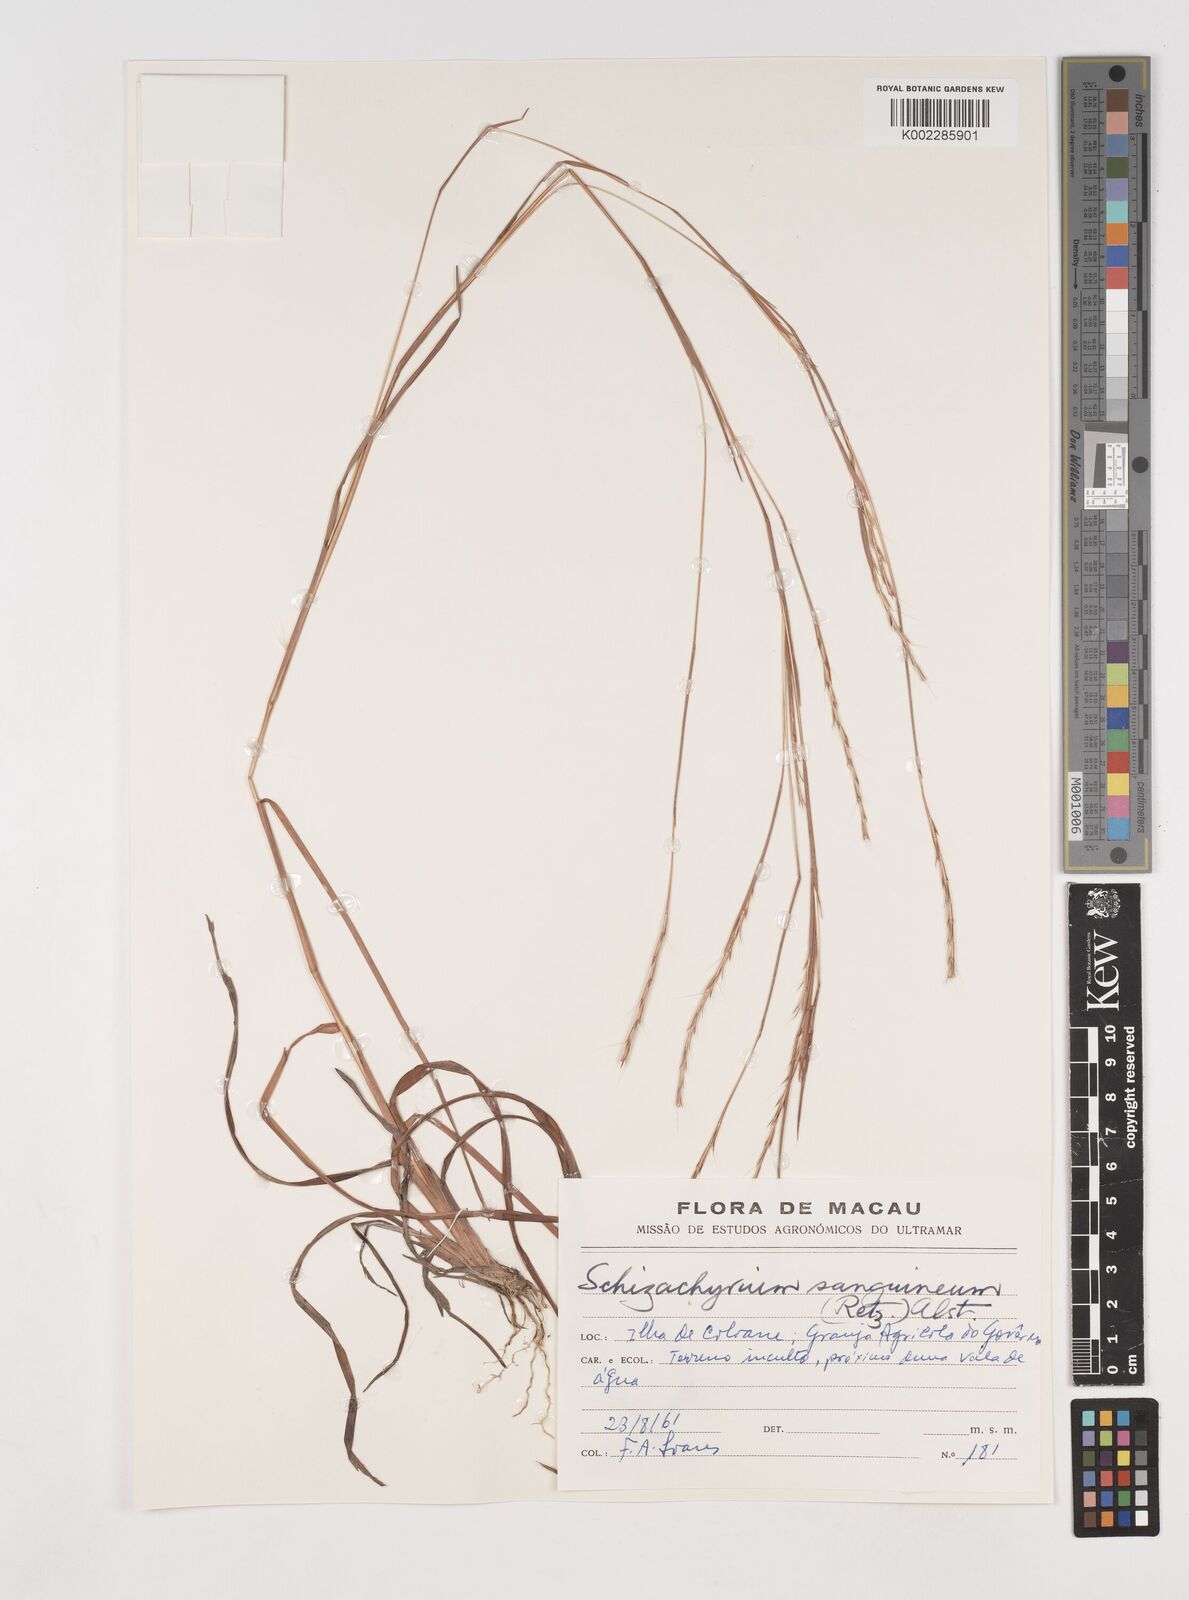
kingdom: Plantae
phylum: Tracheophyta
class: Liliopsida
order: Poales
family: Poaceae
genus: Schizachyrium
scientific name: Schizachyrium sanguineum
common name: Crimson bluestem
